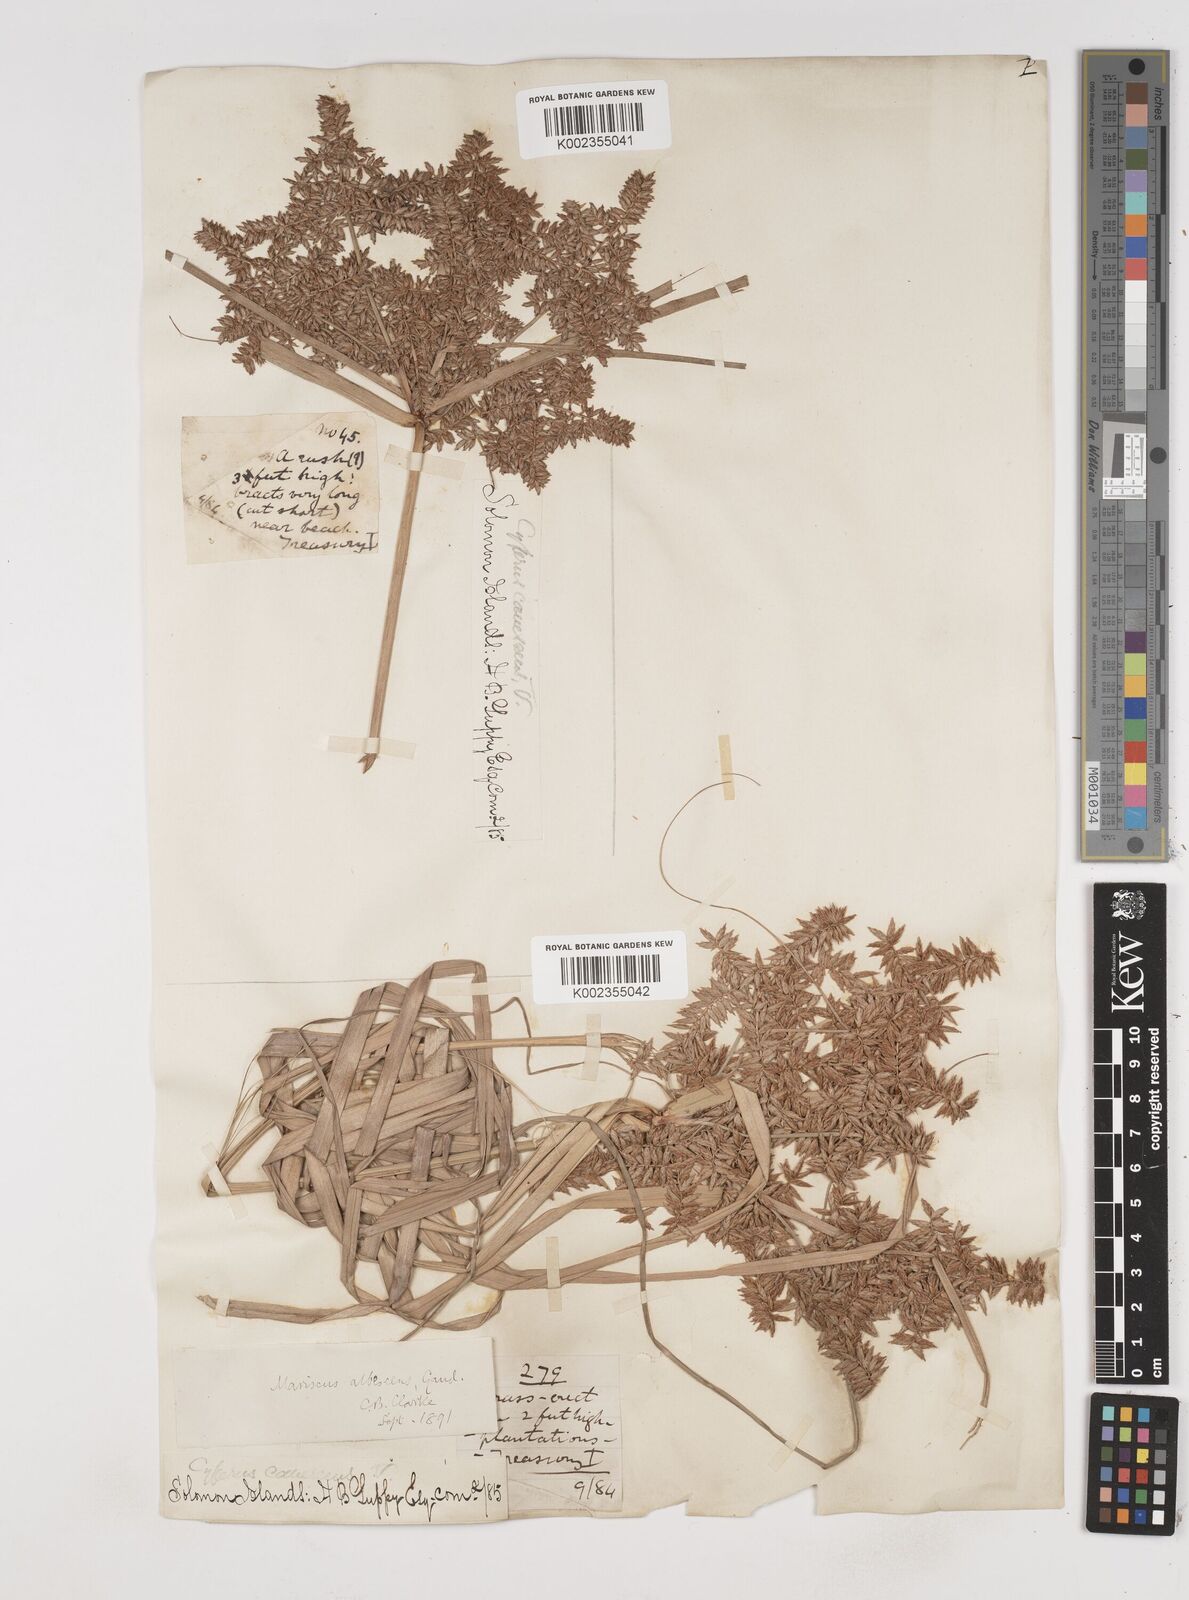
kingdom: Plantae
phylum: Tracheophyta
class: Liliopsida
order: Poales
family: Cyperaceae
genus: Cyperus
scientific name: Cyperus javanicus
